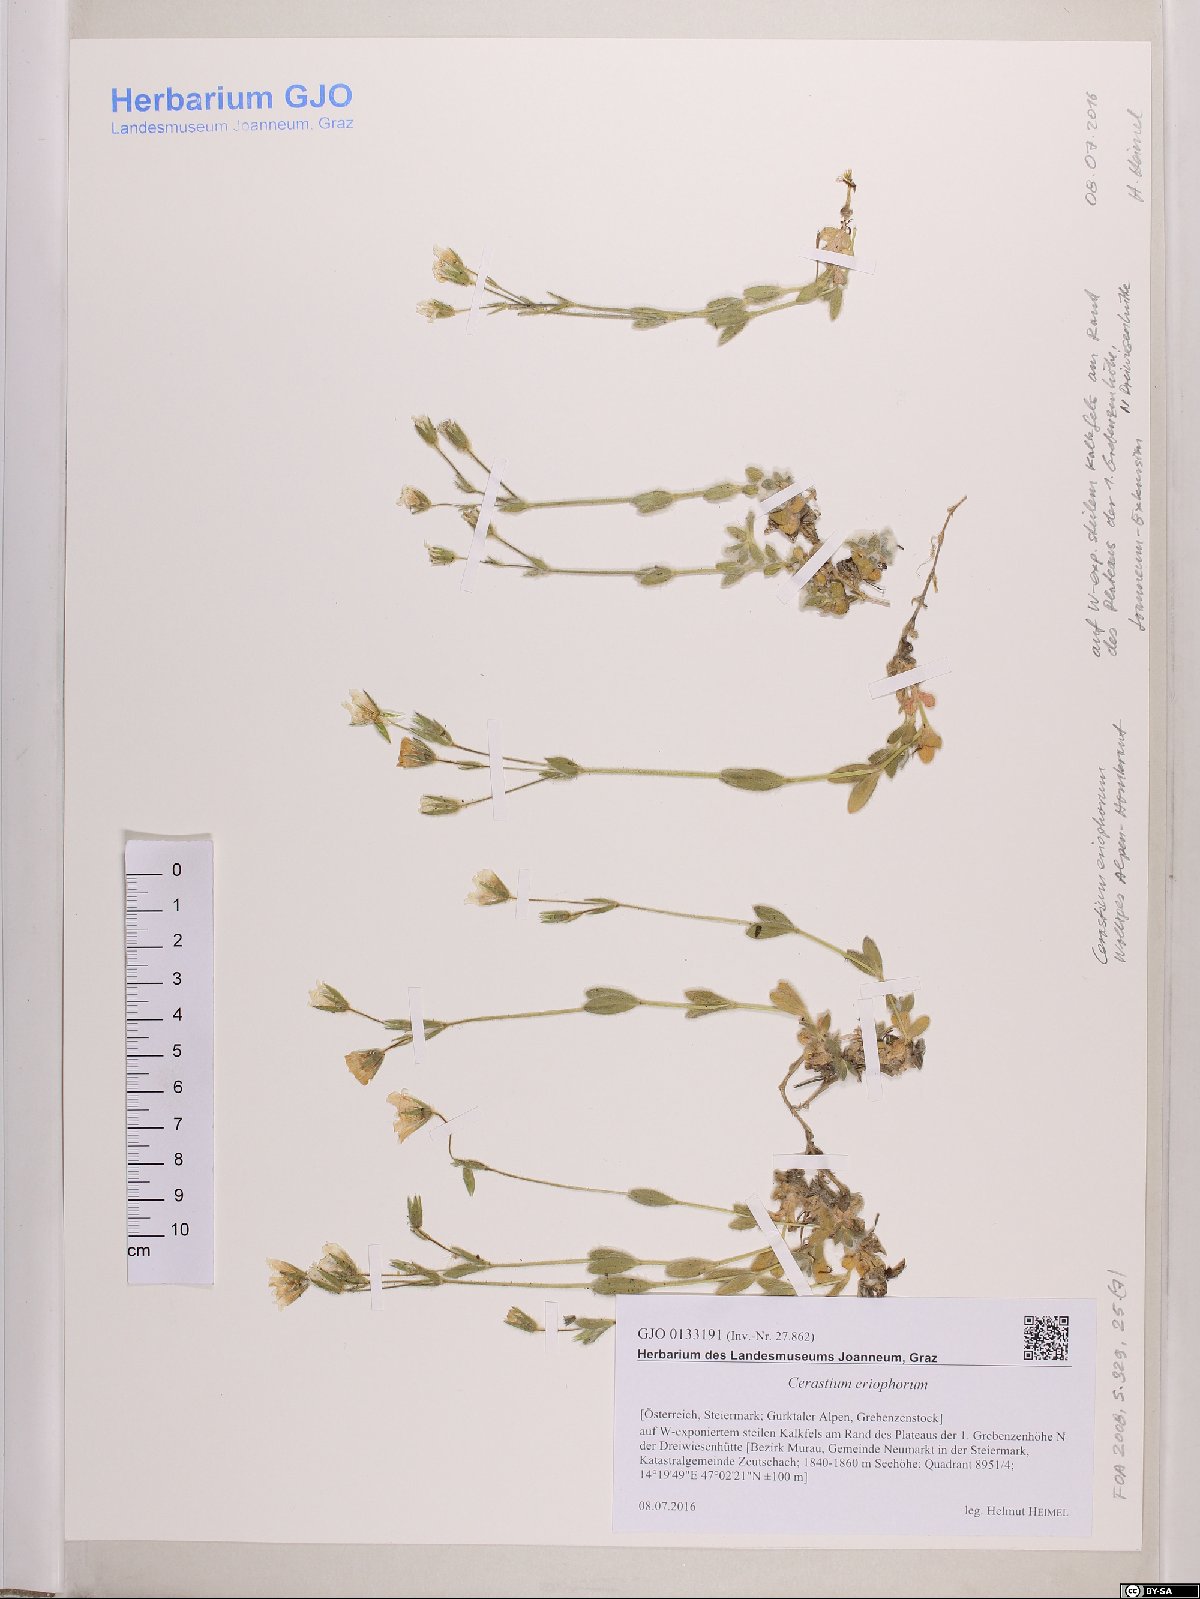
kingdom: Plantae
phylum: Tracheophyta
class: Magnoliopsida
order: Caryophyllales
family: Caryophyllaceae
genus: Cerastium
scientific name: Cerastium eriophorum
